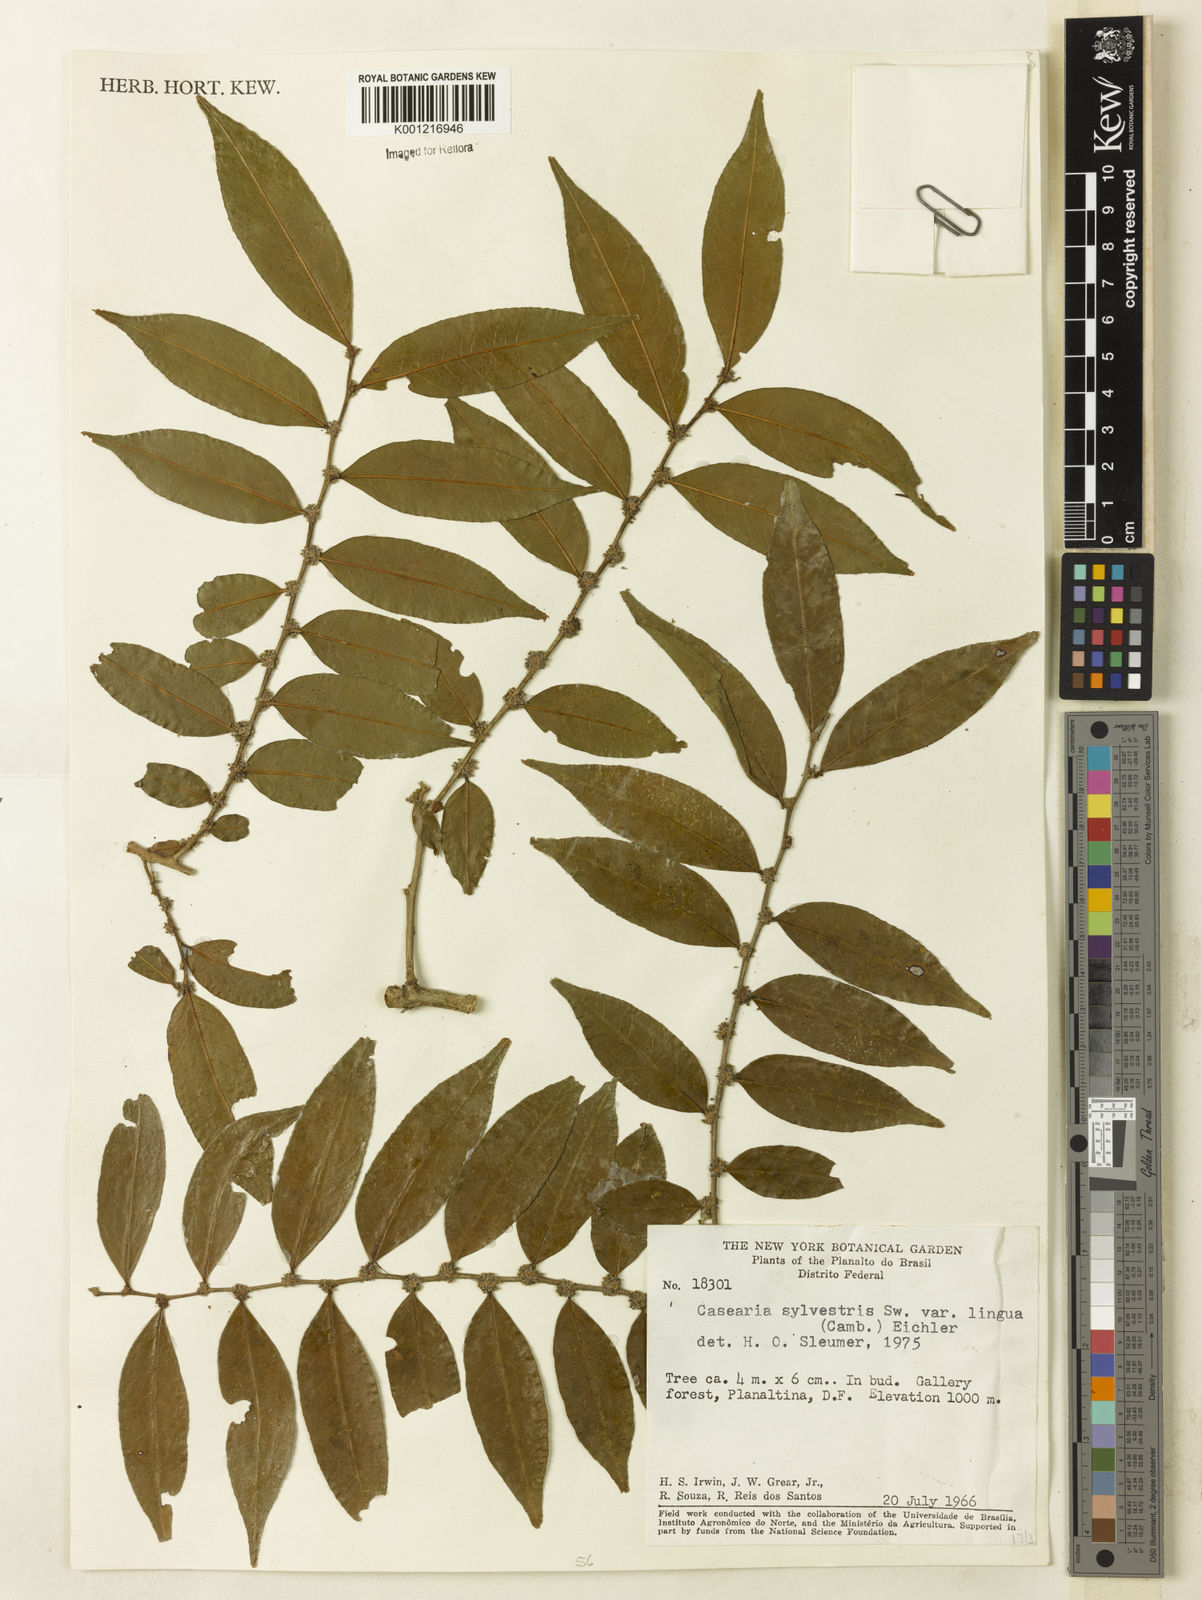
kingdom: Plantae
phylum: Tracheophyta
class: Magnoliopsida
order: Malpighiales
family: Salicaceae
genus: Casearia
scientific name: Casearia sylvestris
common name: Wild sage
